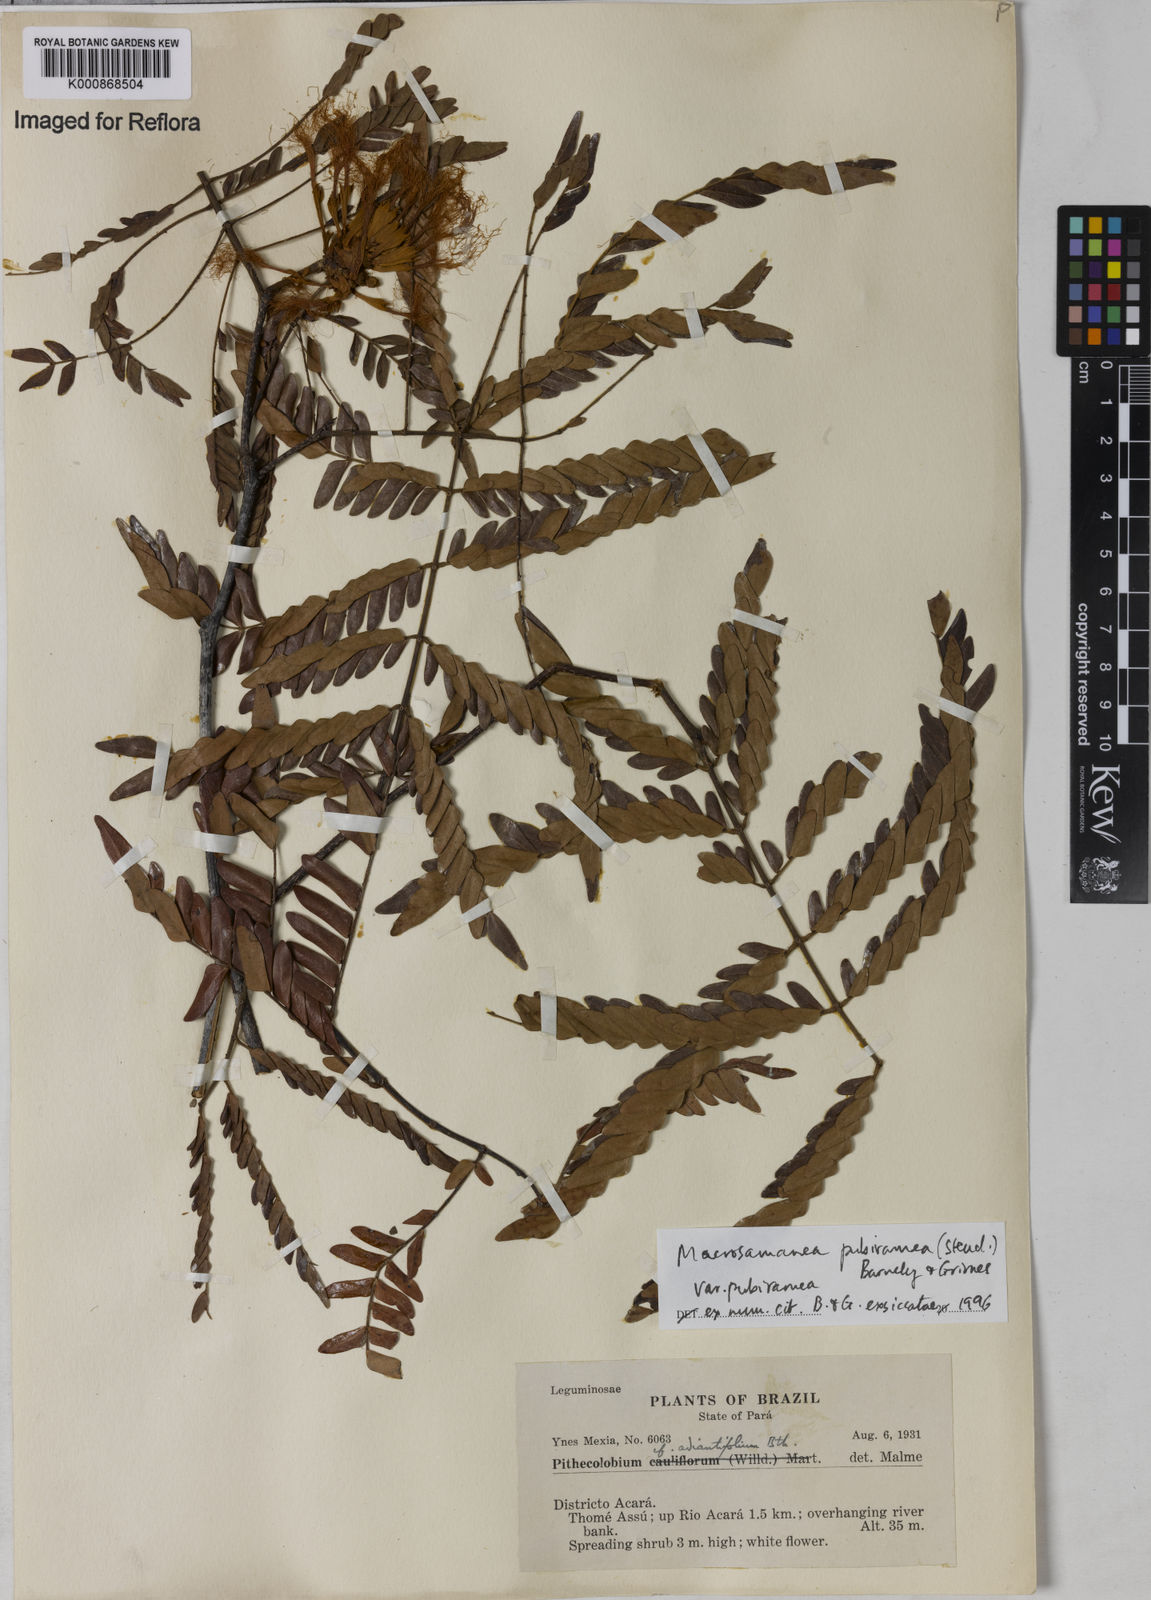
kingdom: Plantae
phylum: Tracheophyta
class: Magnoliopsida
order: Fabales
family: Fabaceae
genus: Macrosamanea
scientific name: Macrosamanea pubiramea
